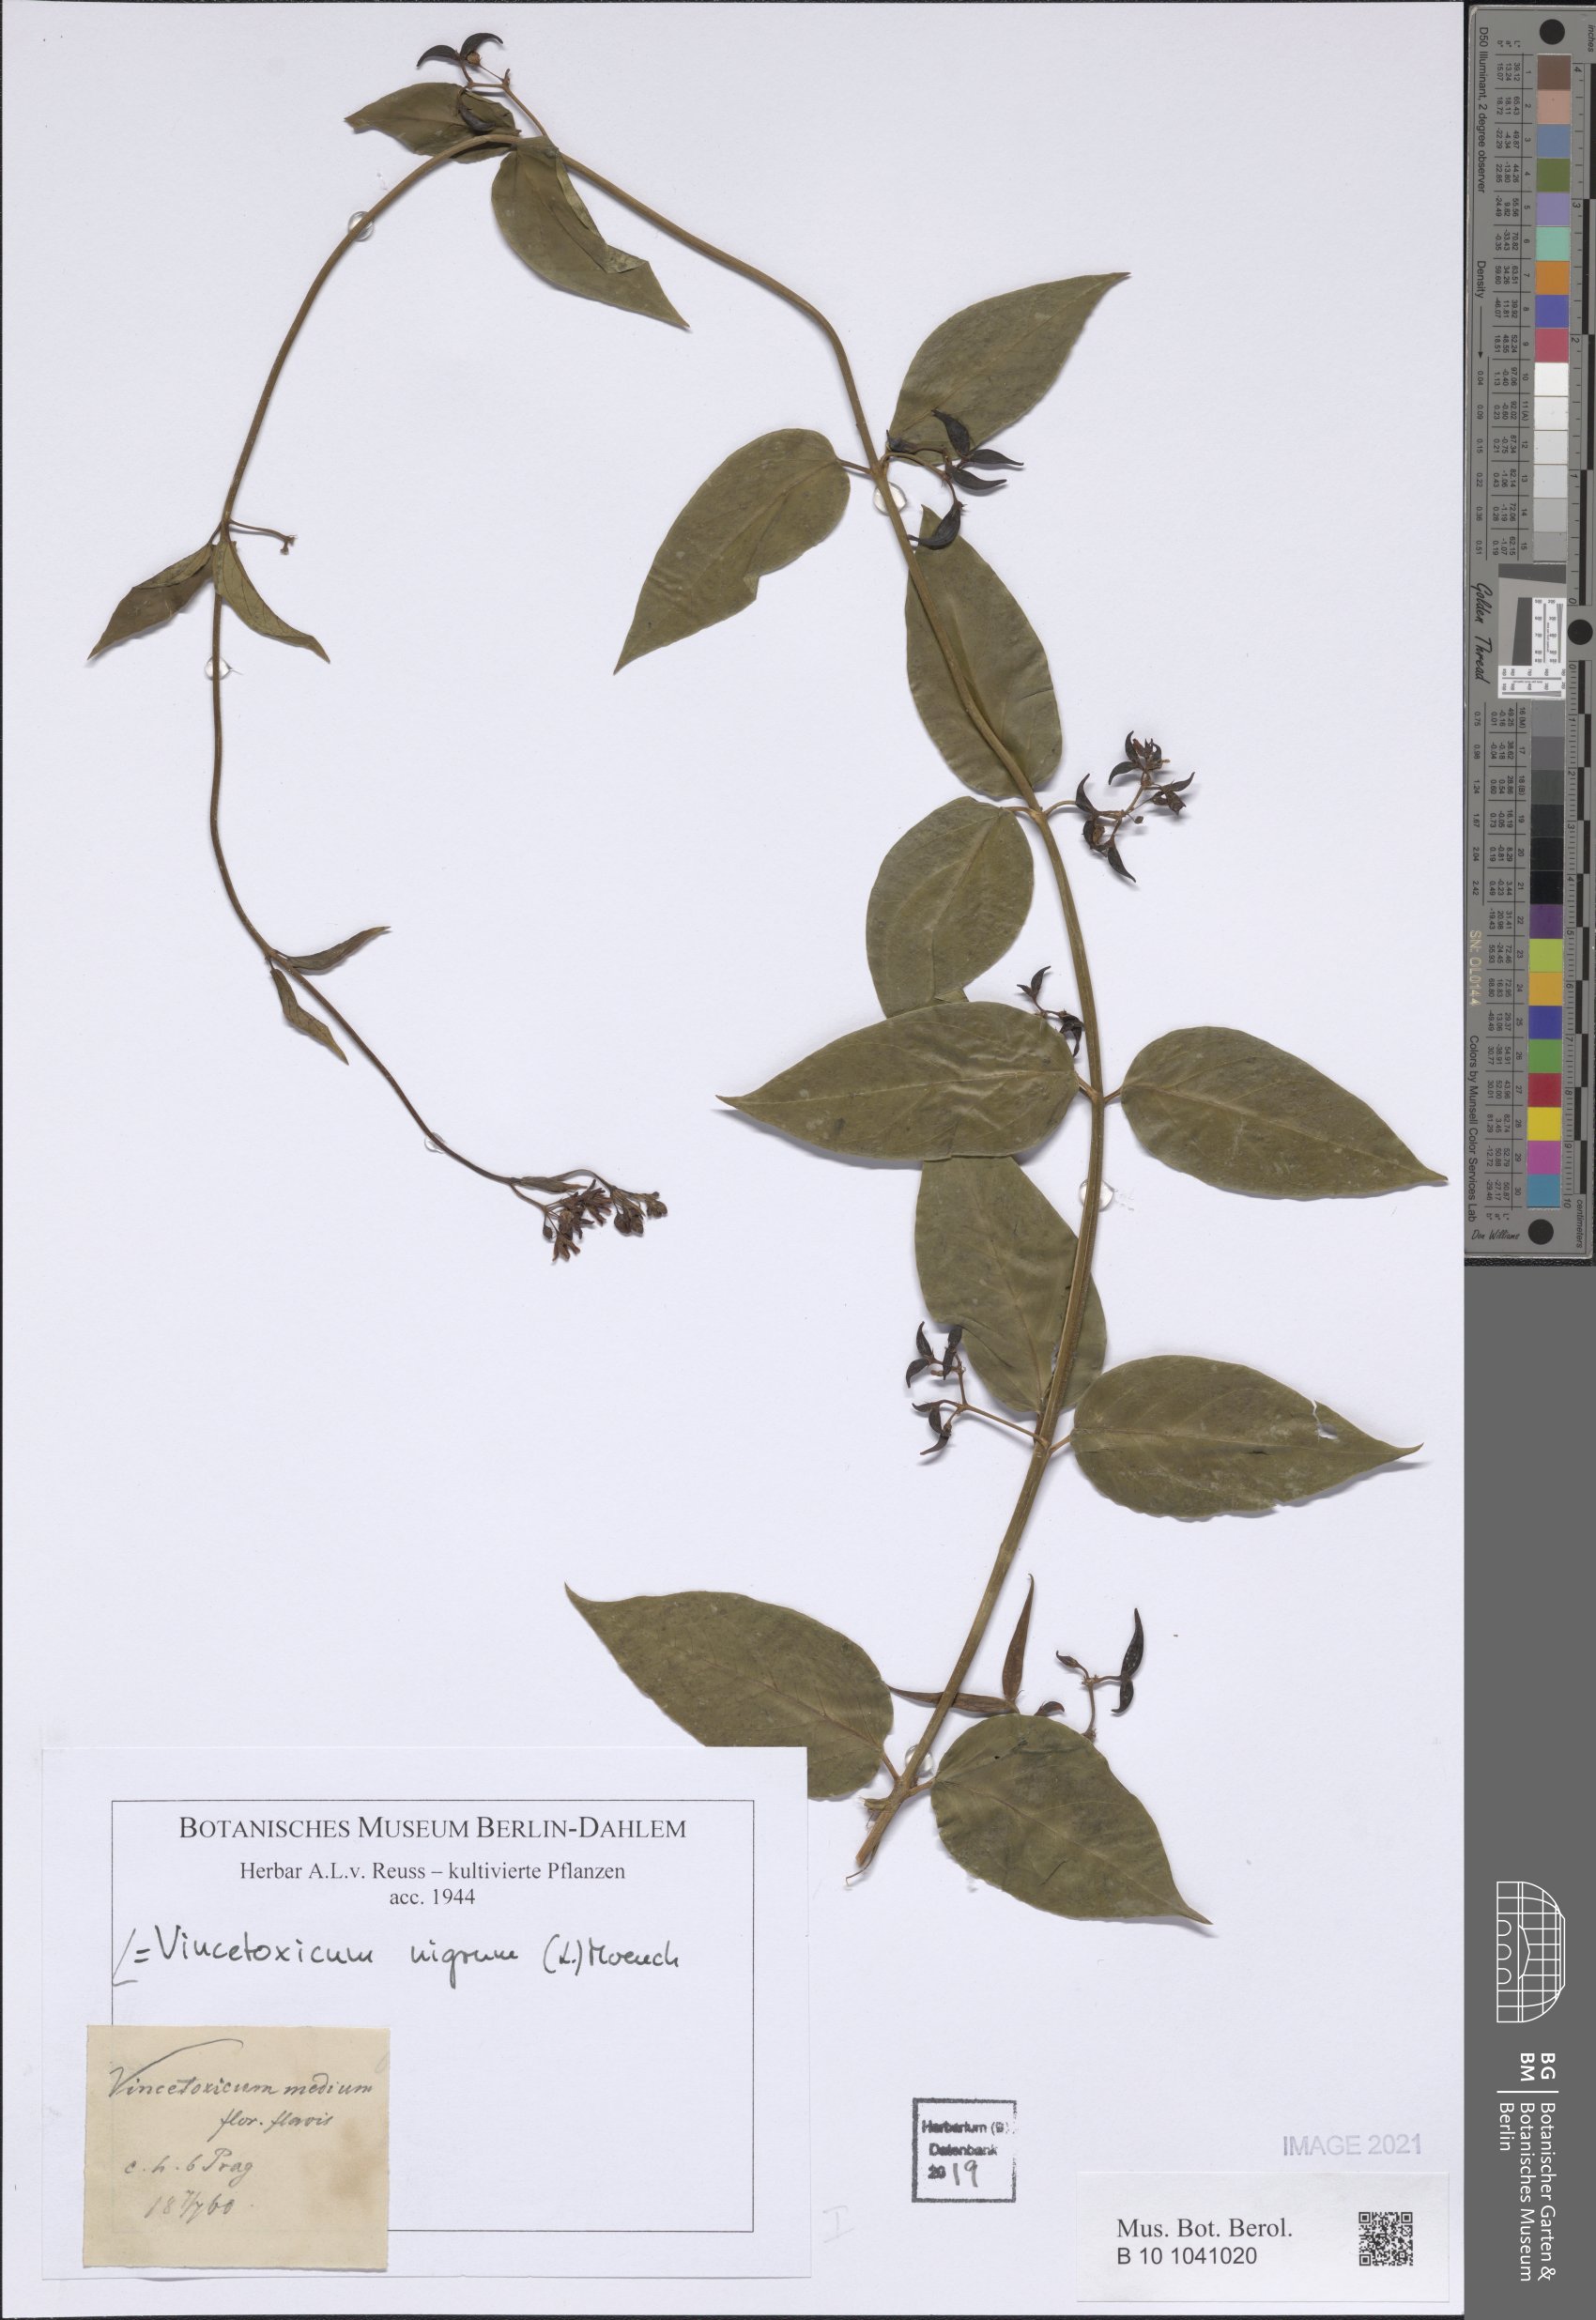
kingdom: Plantae
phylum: Tracheophyta
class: Magnoliopsida
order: Gentianales
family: Apocynaceae
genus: Vincetoxicum
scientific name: Vincetoxicum nigrum
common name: Black swallow-wort
